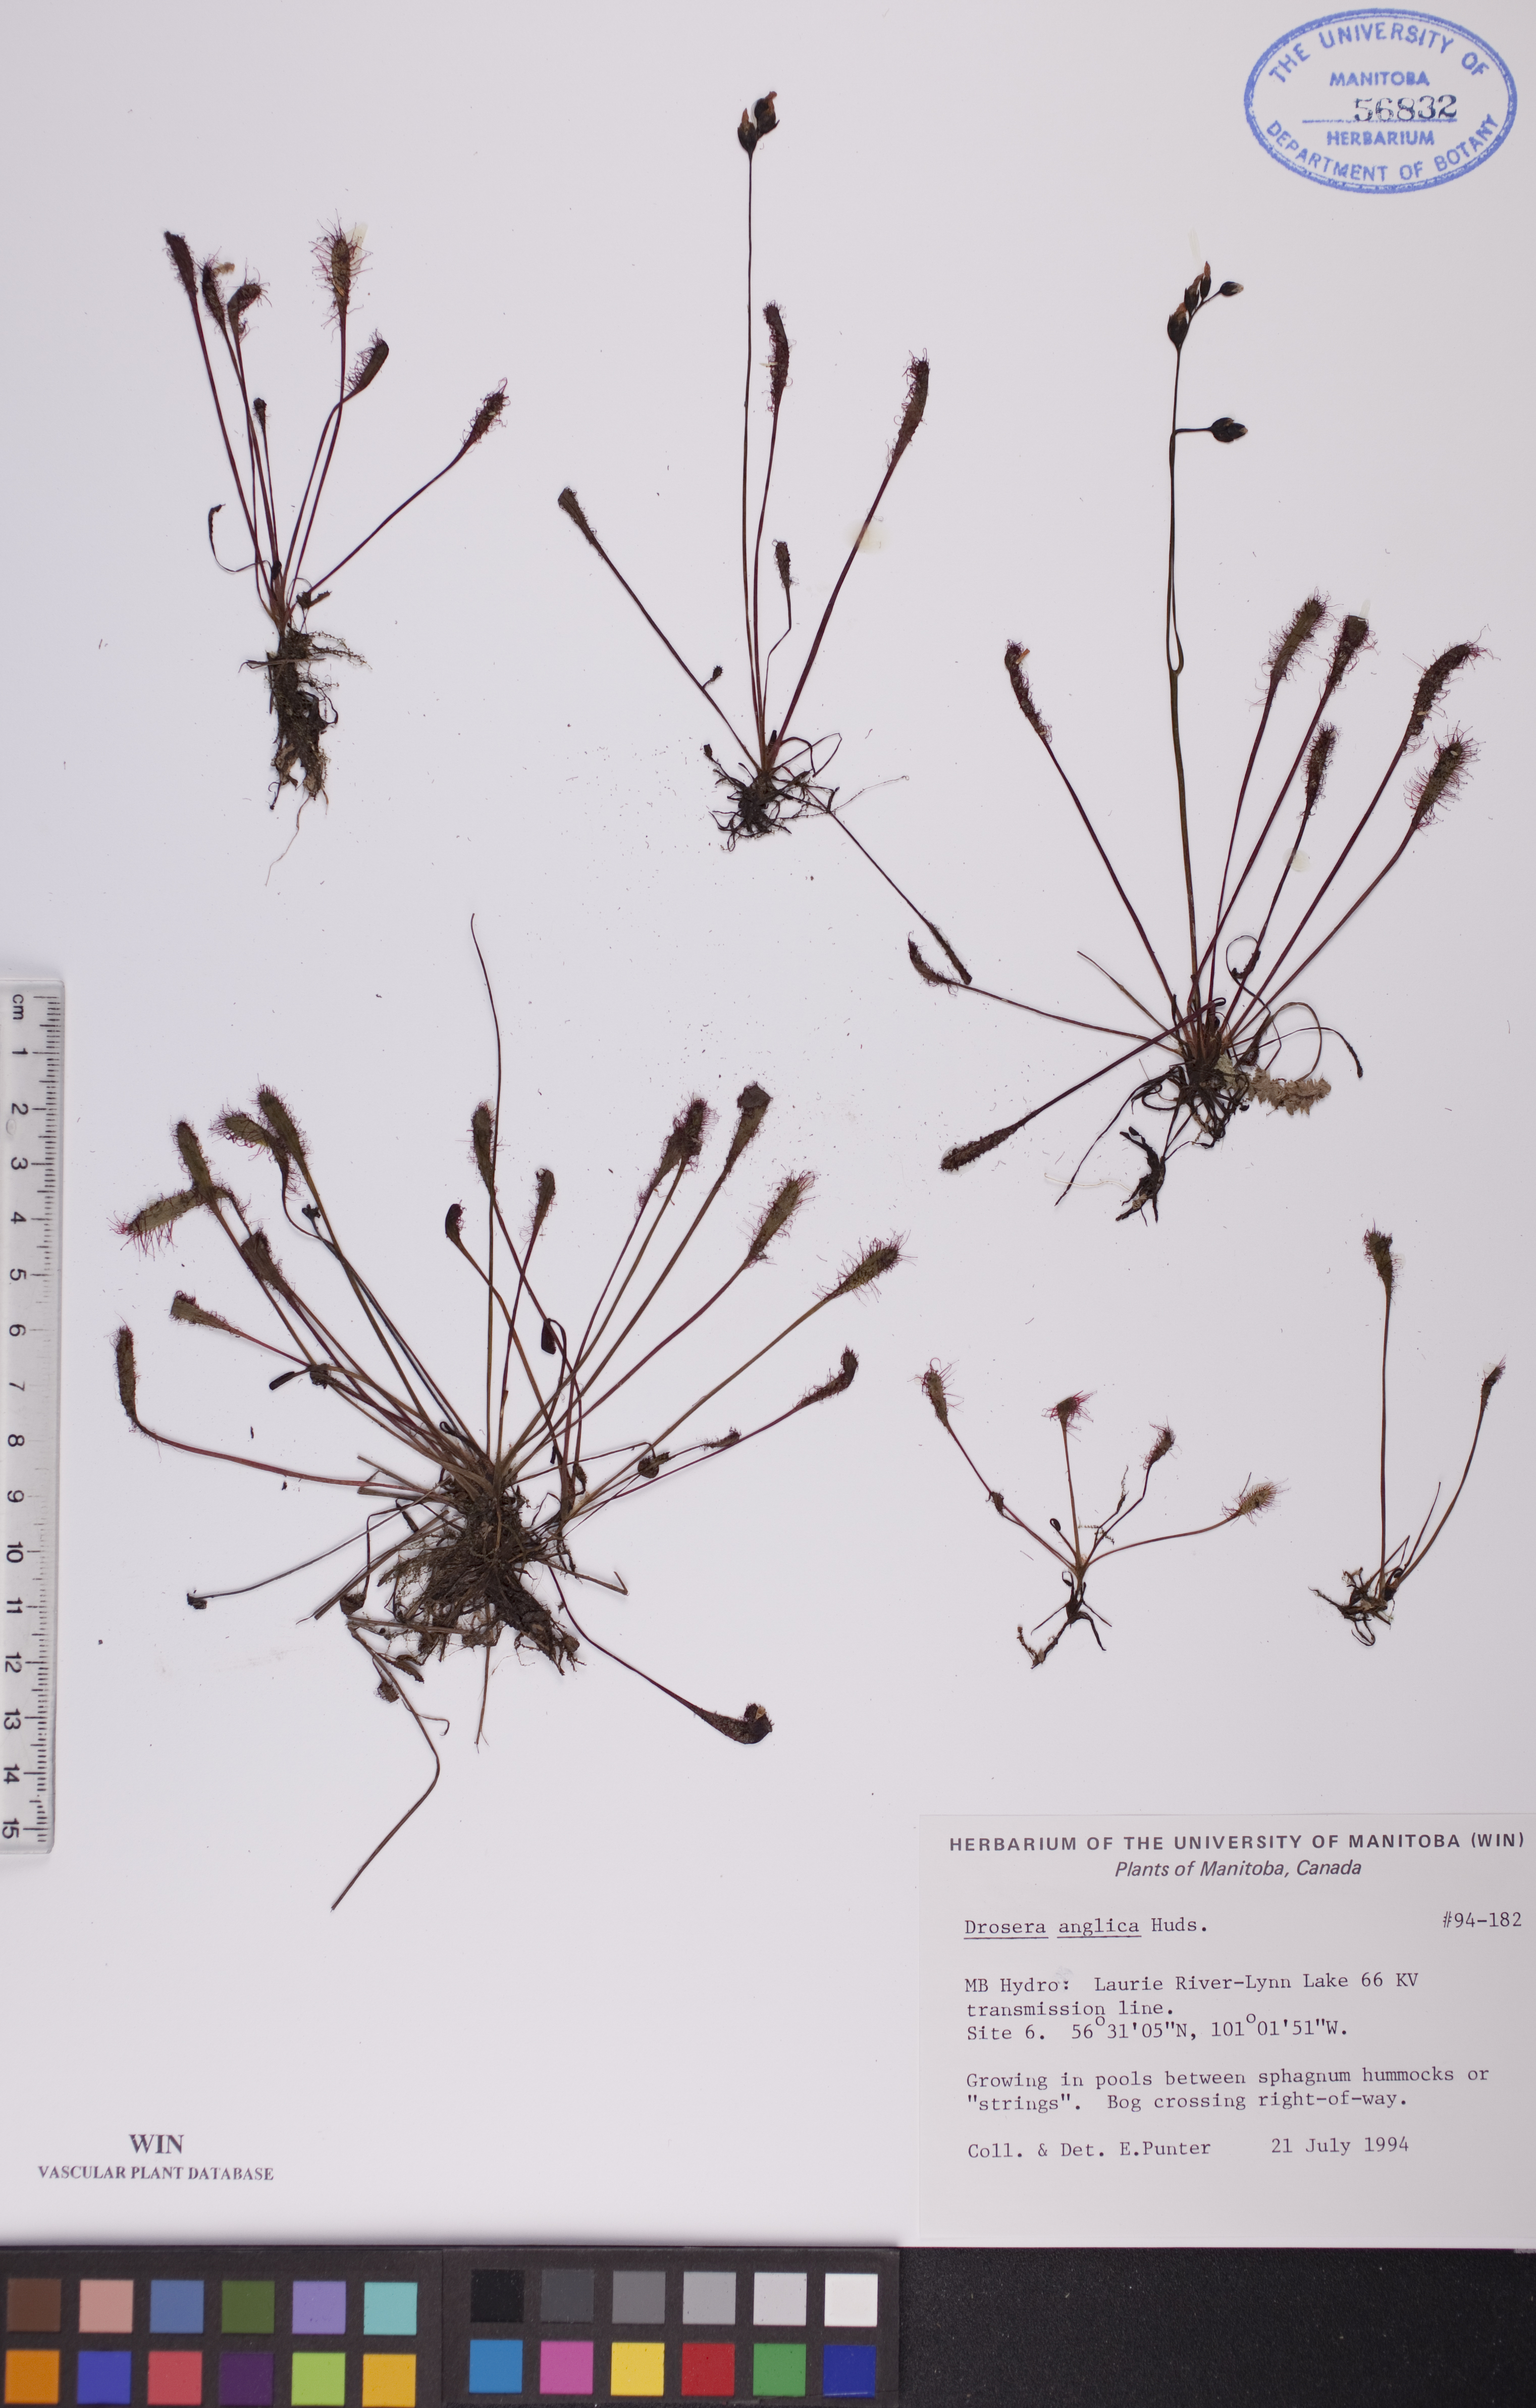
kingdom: Plantae
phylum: Tracheophyta
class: Magnoliopsida
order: Caryophyllales
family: Droseraceae
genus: Drosera
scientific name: Drosera anglica
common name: Great sundew
